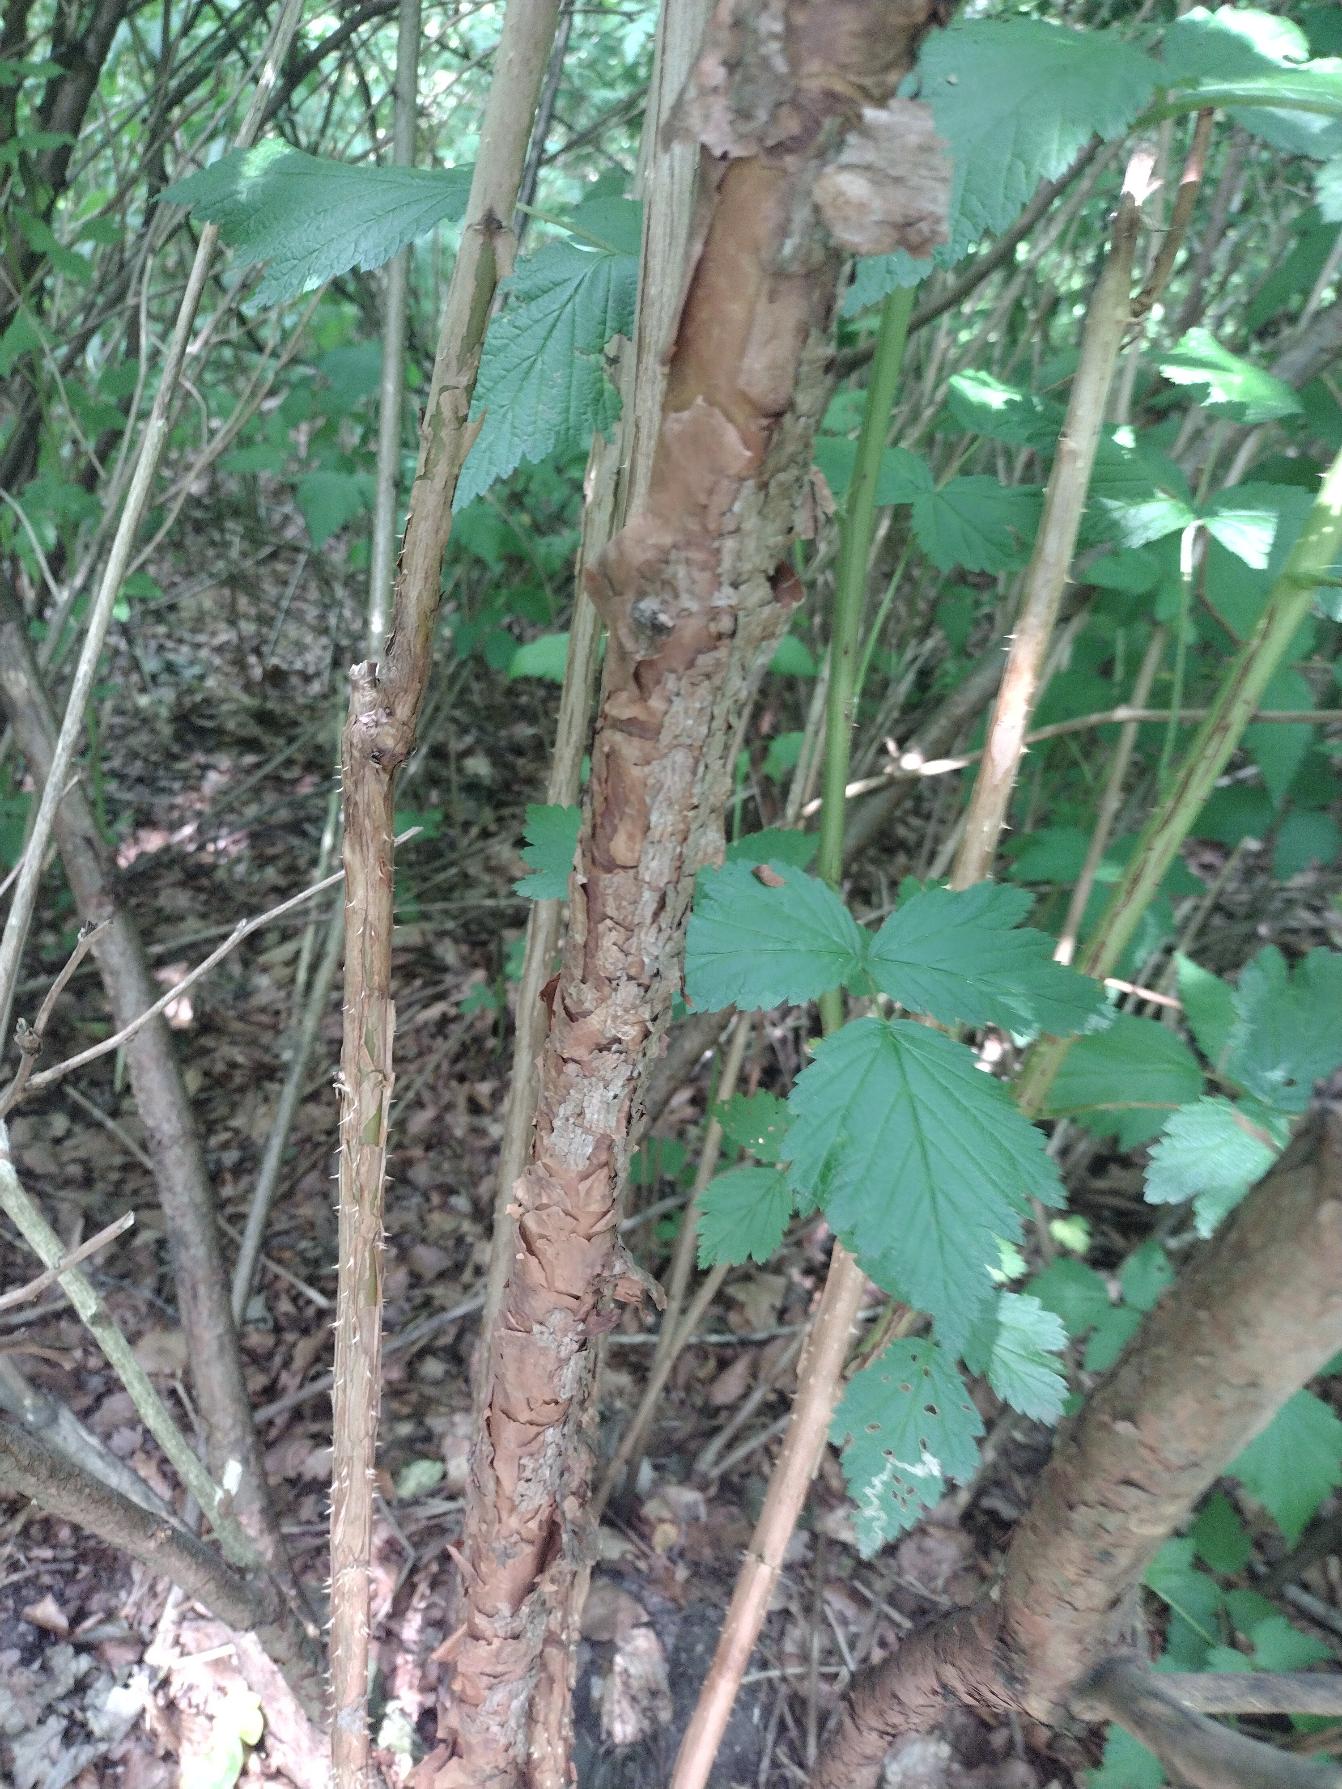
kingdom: Plantae
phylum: Tracheophyta
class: Magnoliopsida
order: Rosales
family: Rosaceae
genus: Rubus
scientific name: Rubus spectabilis
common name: Laksebær
